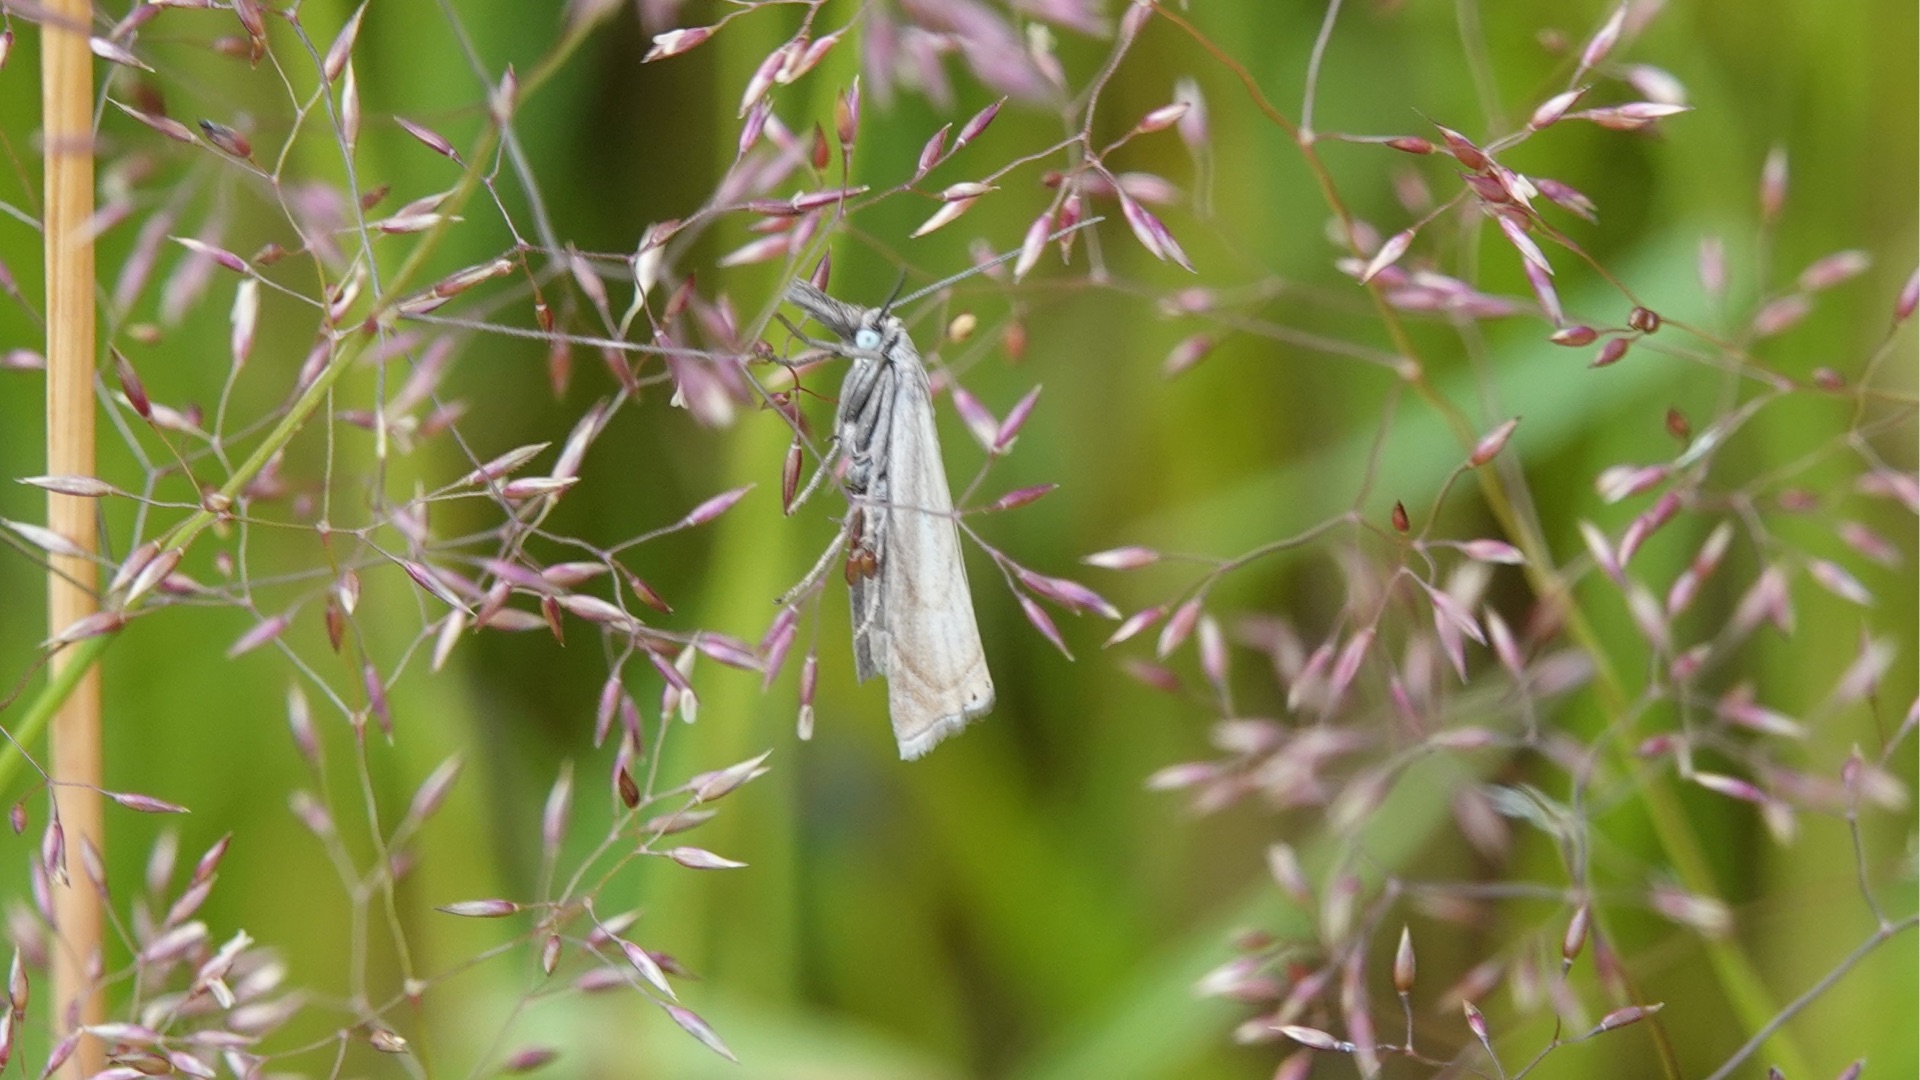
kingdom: Animalia
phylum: Arthropoda
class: Insecta
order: Lepidoptera
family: Crambidae
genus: Chrysoteuchia
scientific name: Chrysoteuchia culmella
